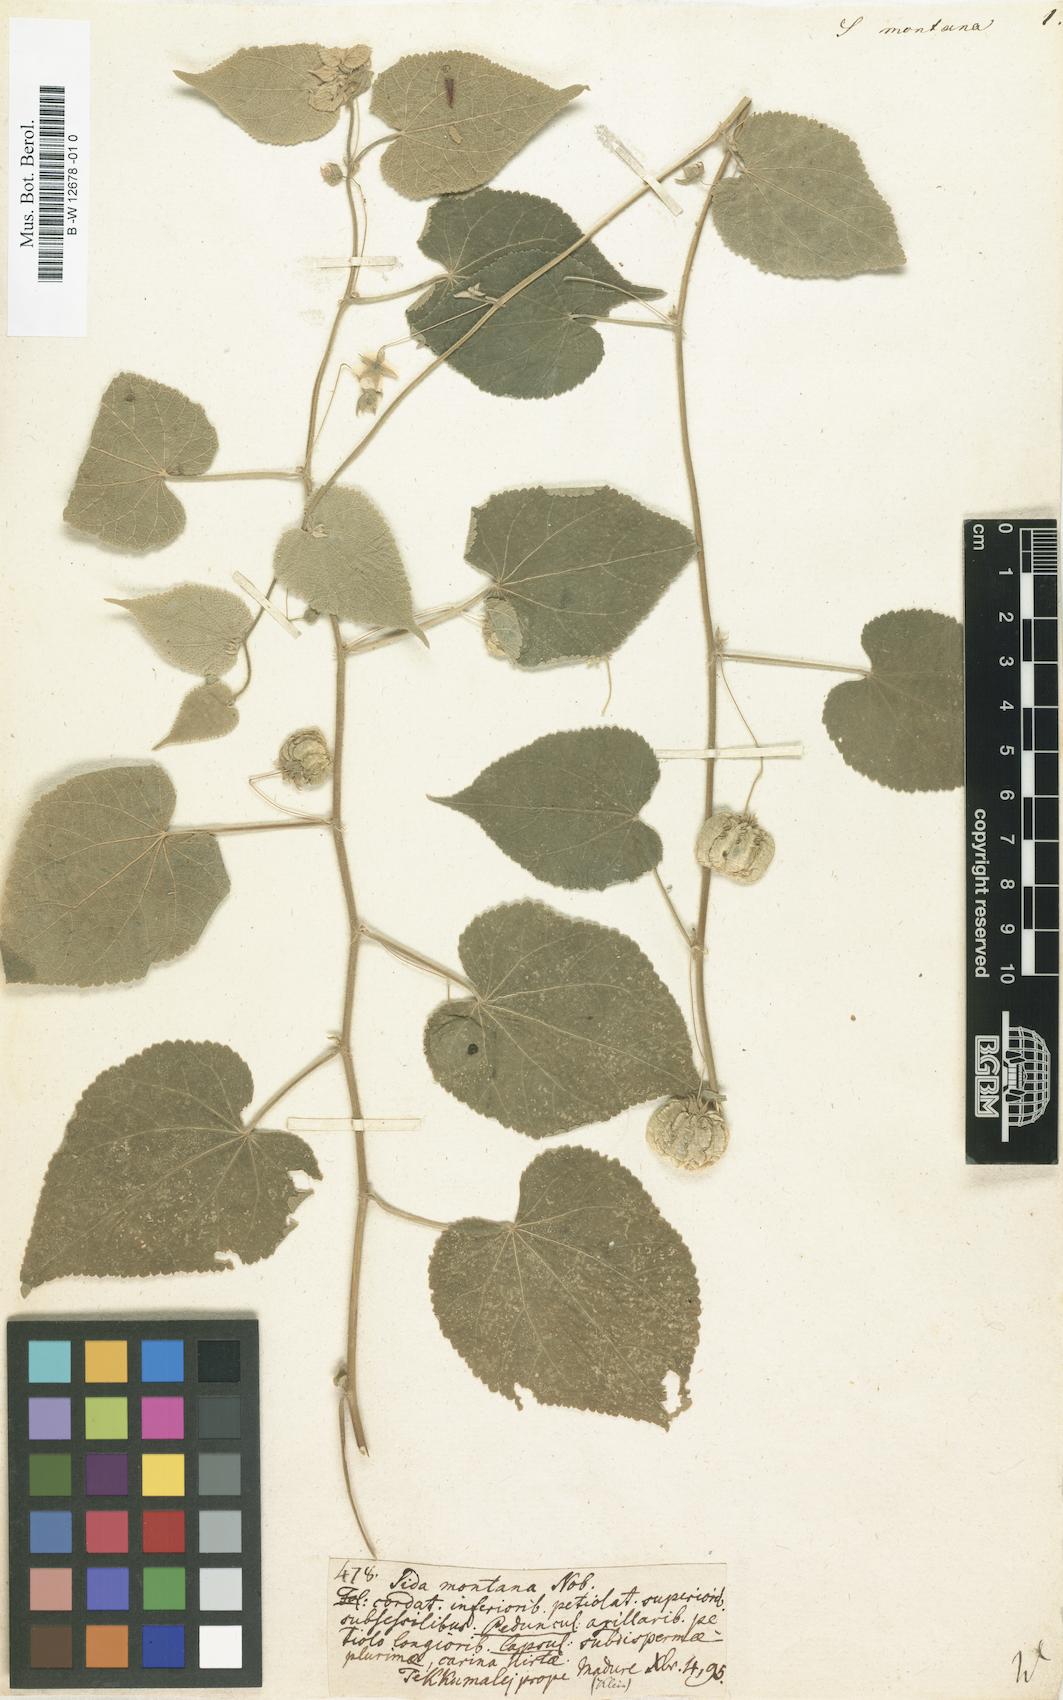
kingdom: Plantae
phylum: Tracheophyta
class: Magnoliopsida
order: Malvales
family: Malvaceae
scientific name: Malvaceae
